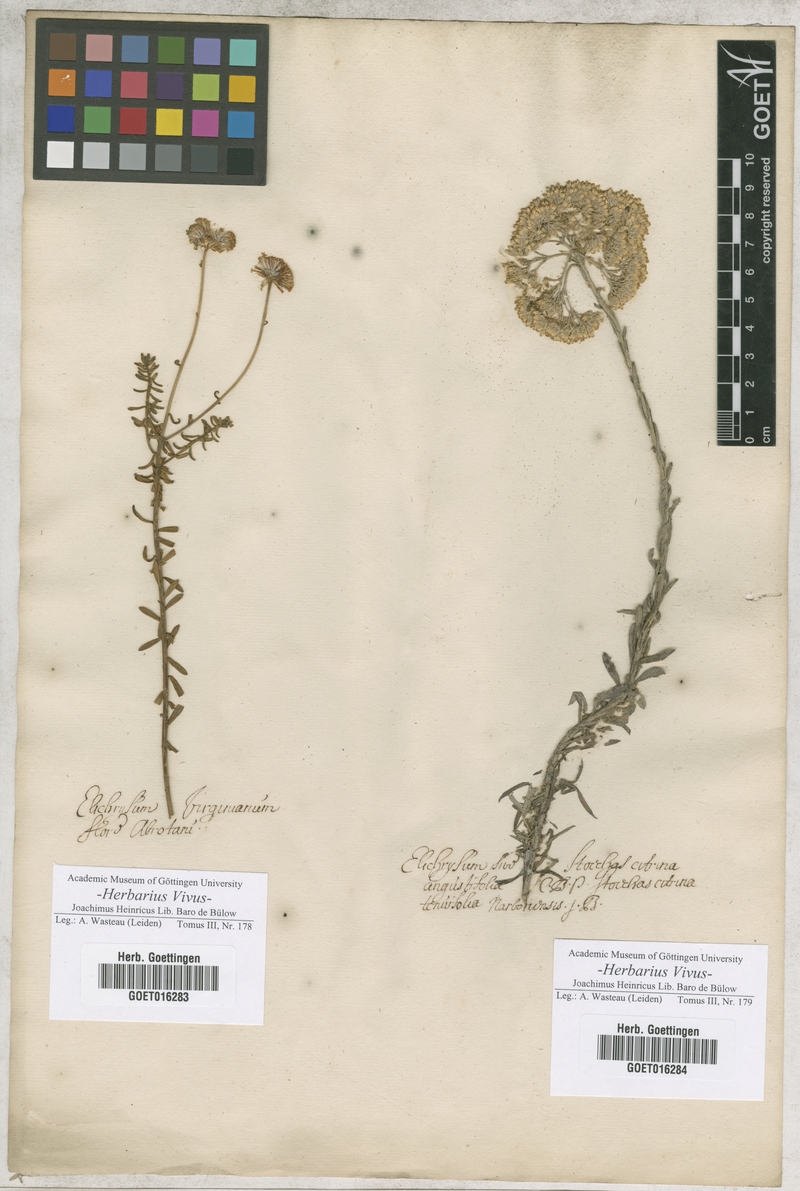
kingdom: Plantae
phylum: Tracheophyta
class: Magnoliopsida
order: Asterales
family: Asteraceae
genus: Helichrysum
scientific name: Helichrysum
